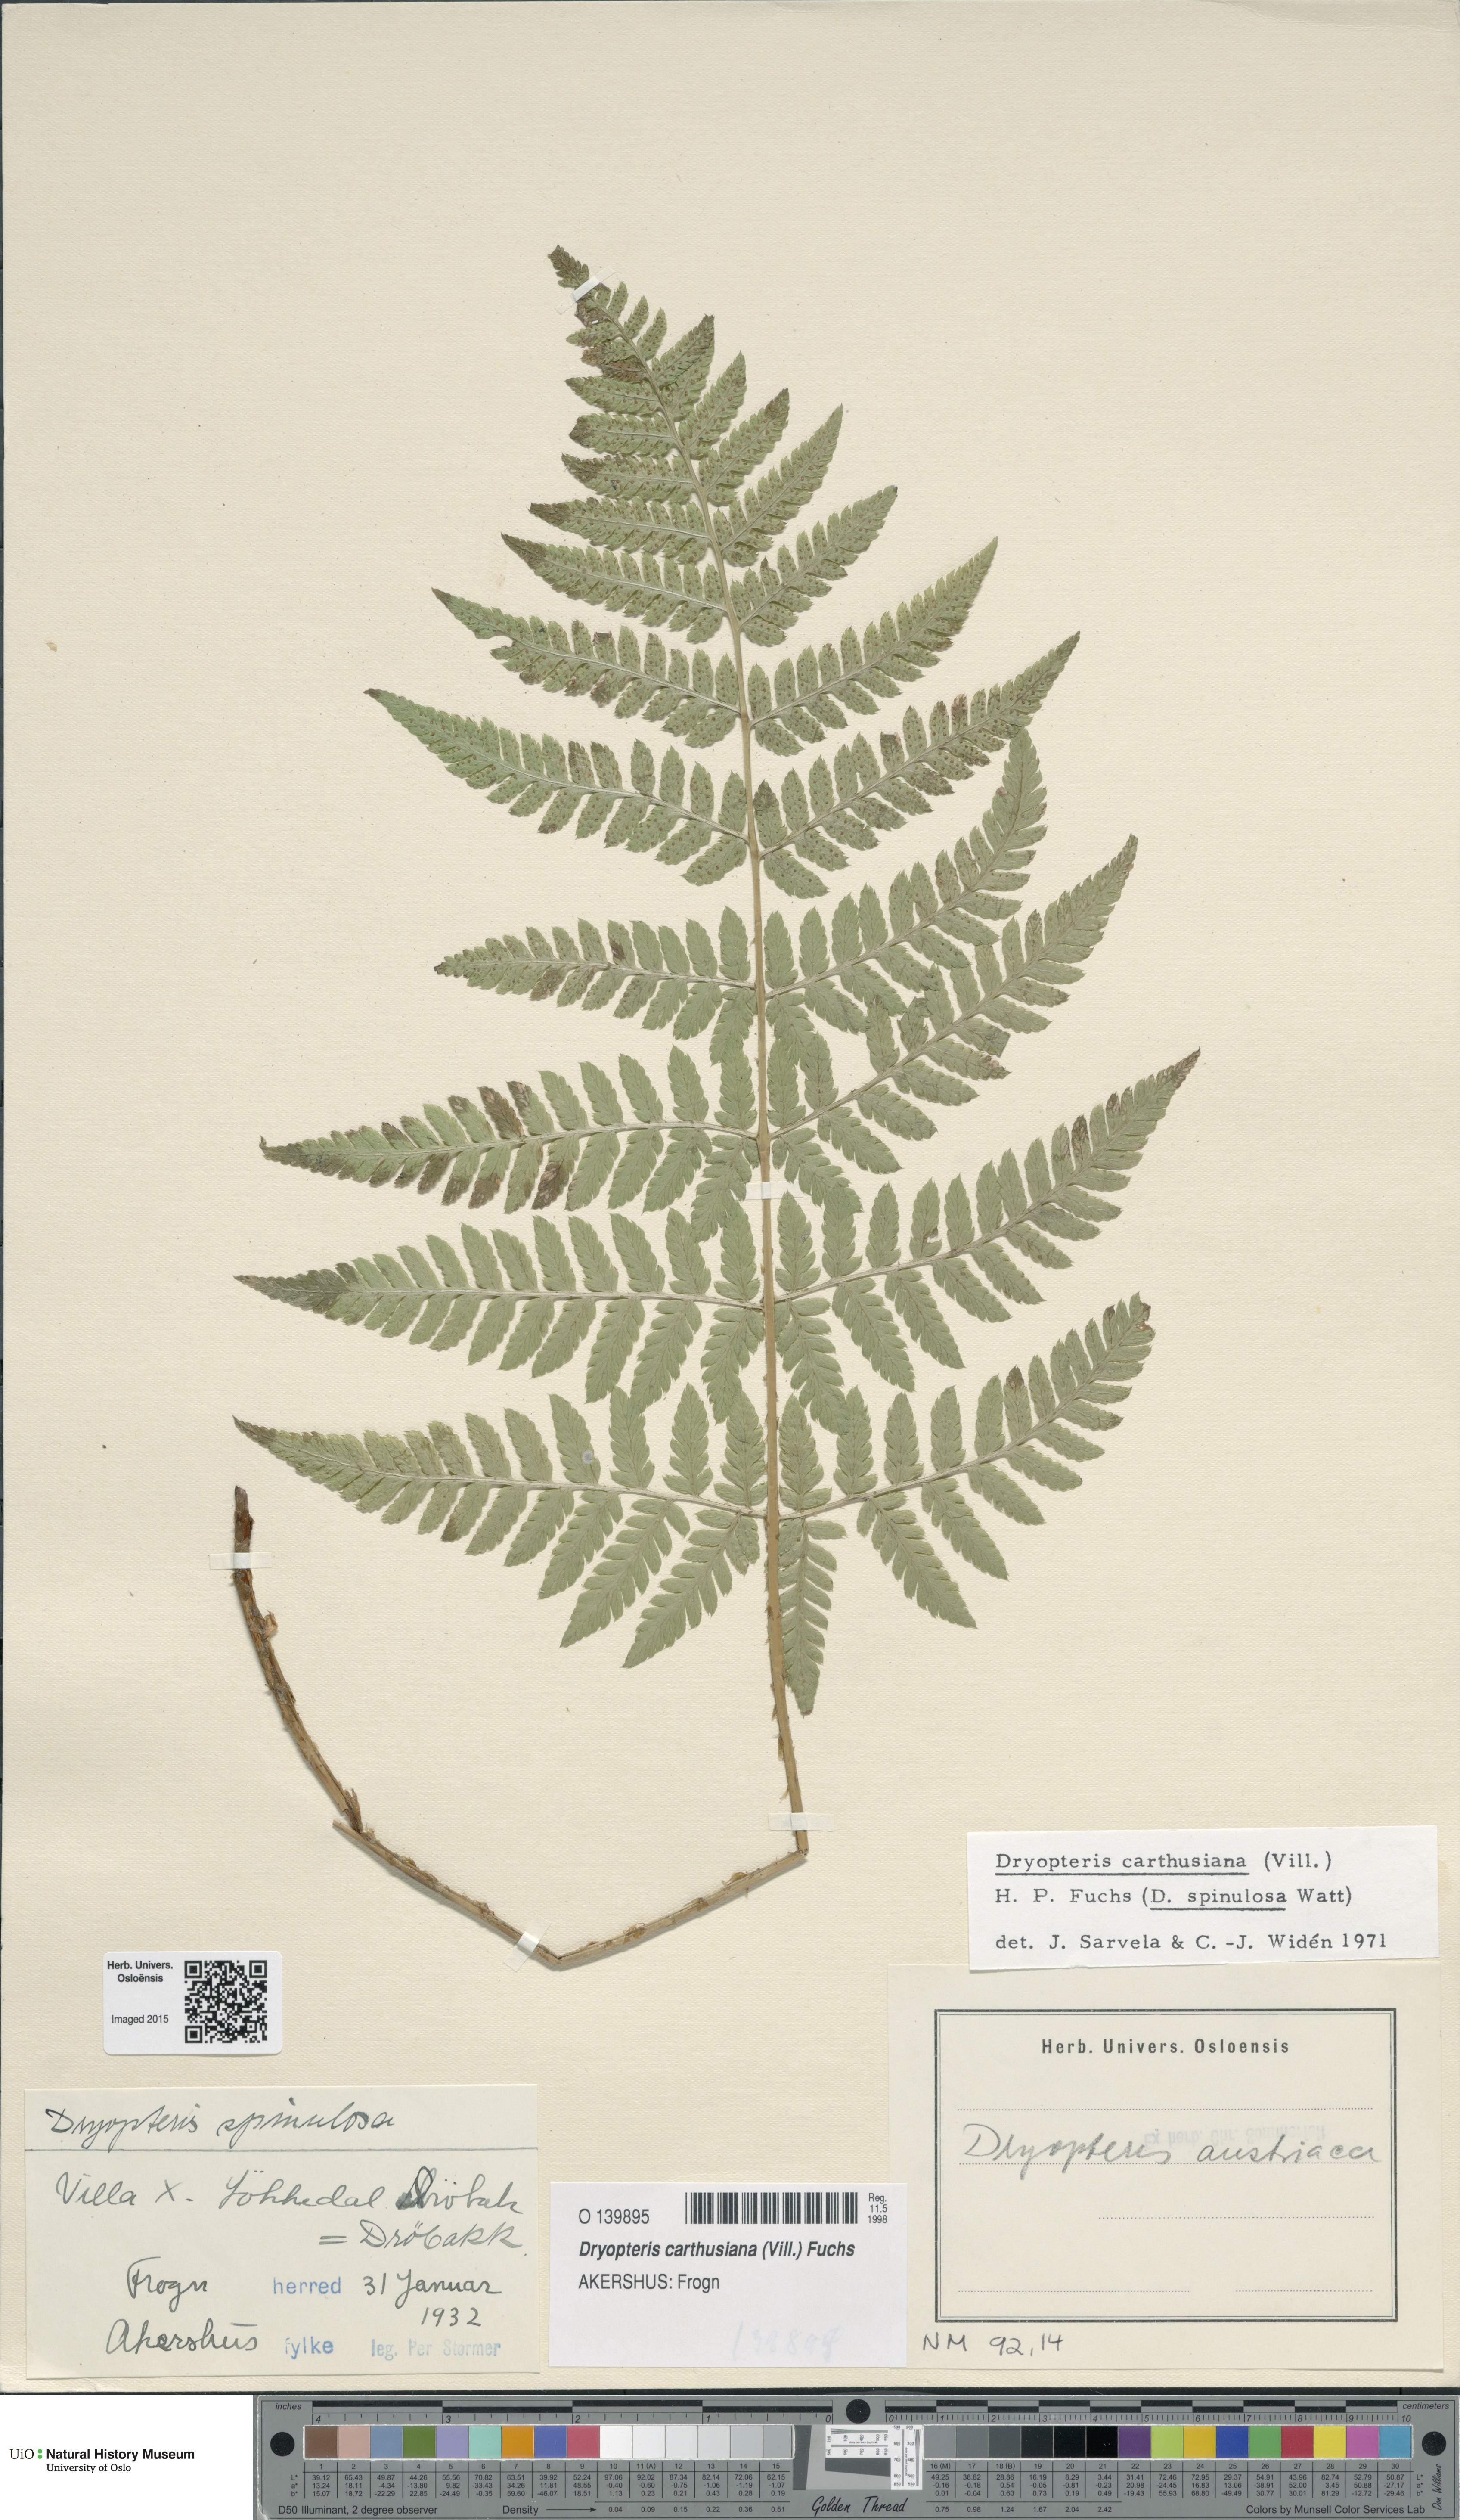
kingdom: Plantae
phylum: Tracheophyta
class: Polypodiopsida
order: Polypodiales
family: Dryopteridaceae
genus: Dryopteris
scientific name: Dryopteris carthusiana
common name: Narrow buckler-fern
